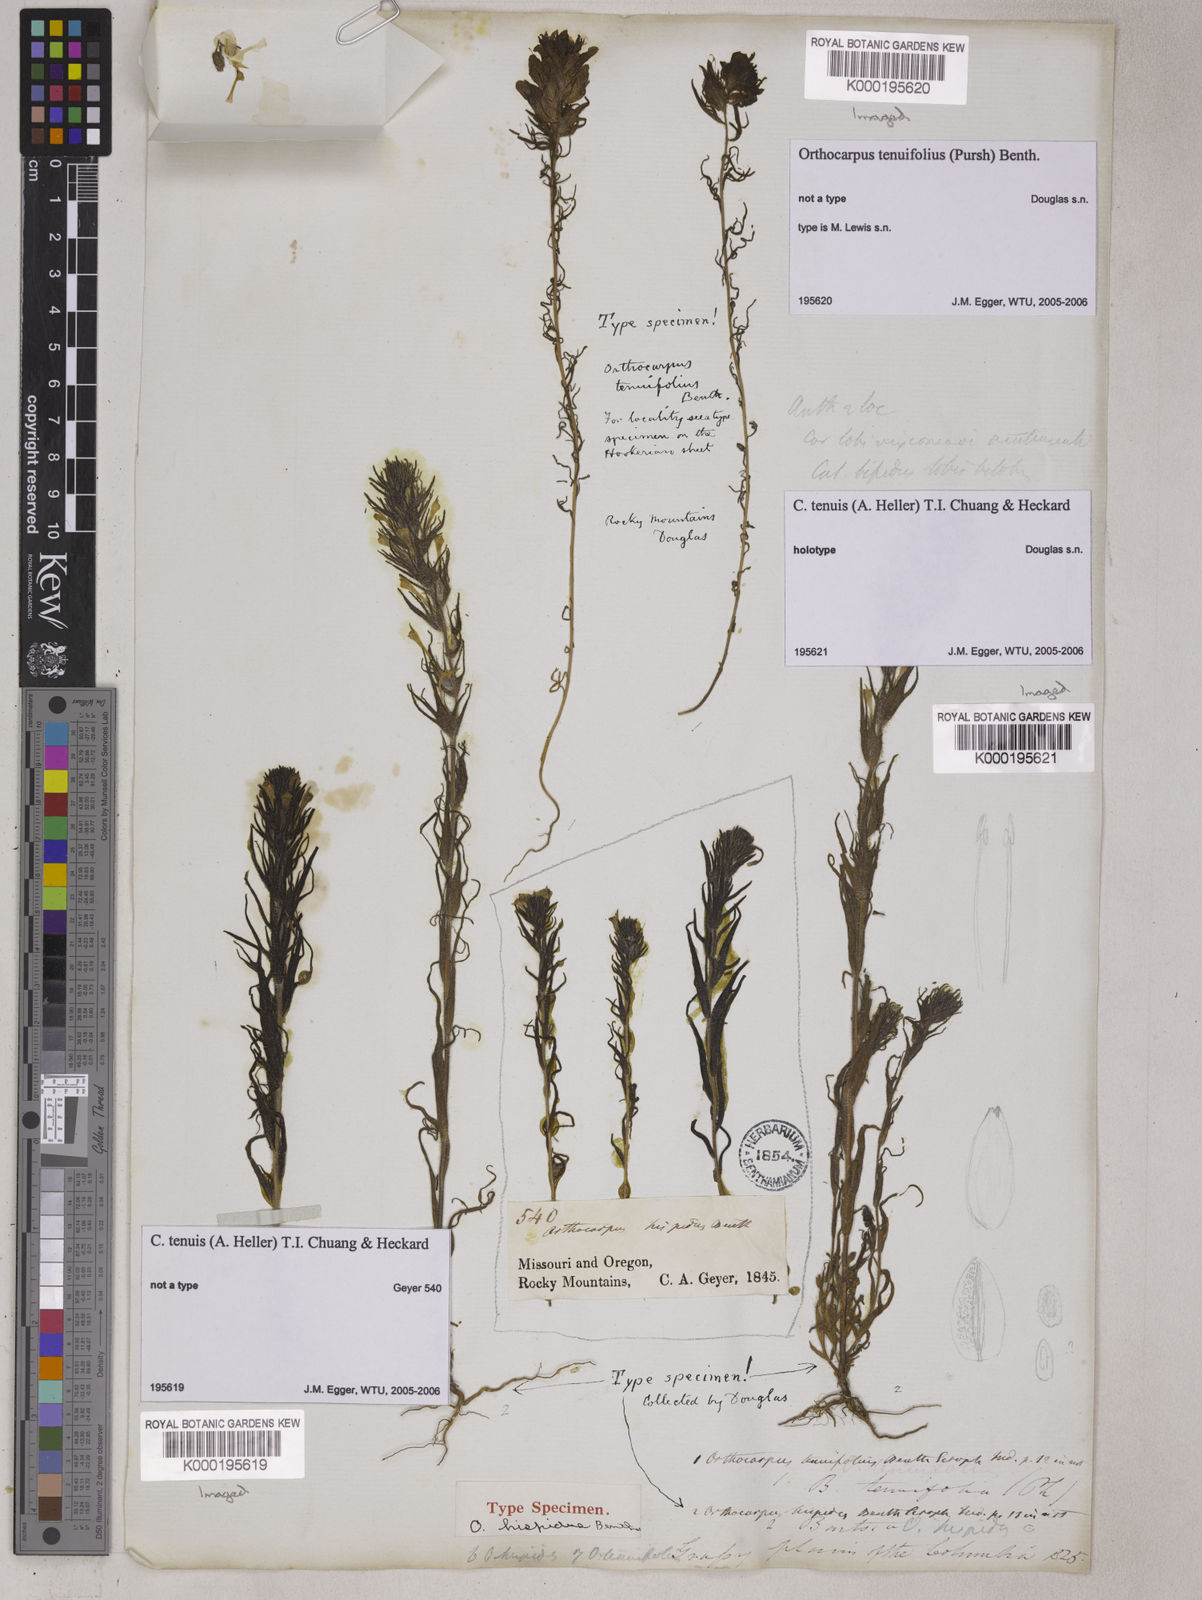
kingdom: Plantae
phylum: Tracheophyta
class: Magnoliopsida
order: Lamiales
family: Orobanchaceae
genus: Castilleja
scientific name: Castilleja tenuis
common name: Hairy indian paintbrush
